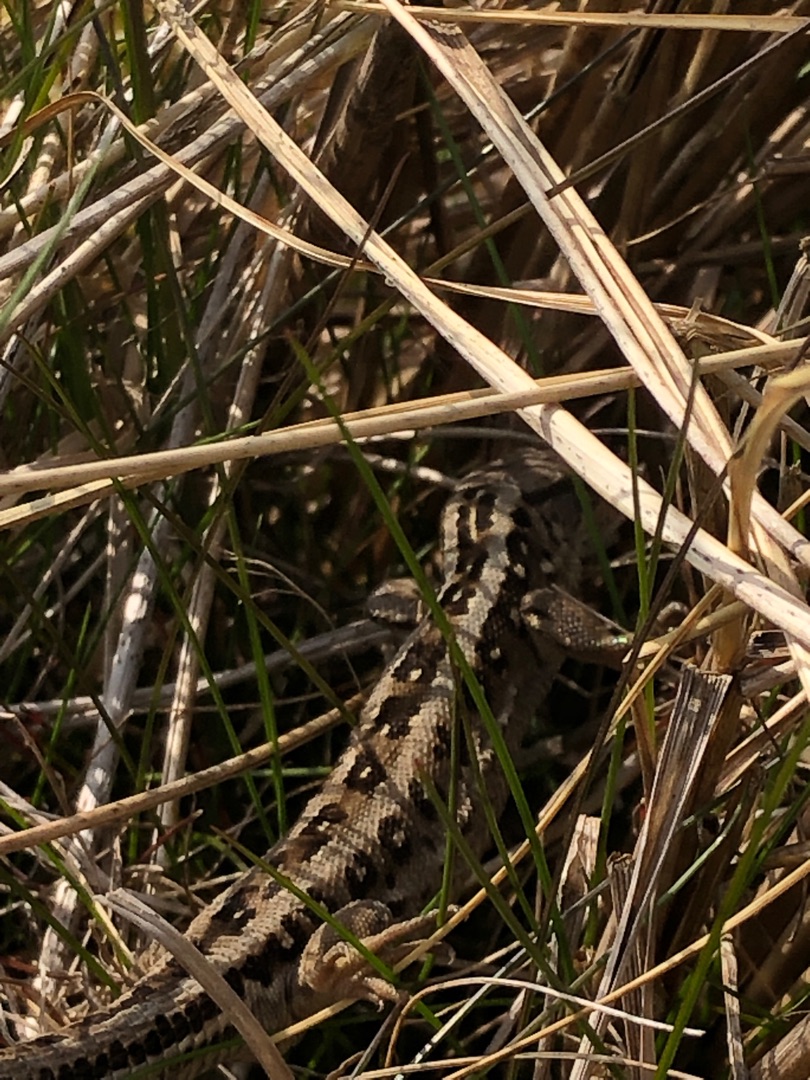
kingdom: Animalia
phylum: Chordata
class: Squamata
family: Lacertidae
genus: Lacerta
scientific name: Lacerta agilis
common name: Markfirben
